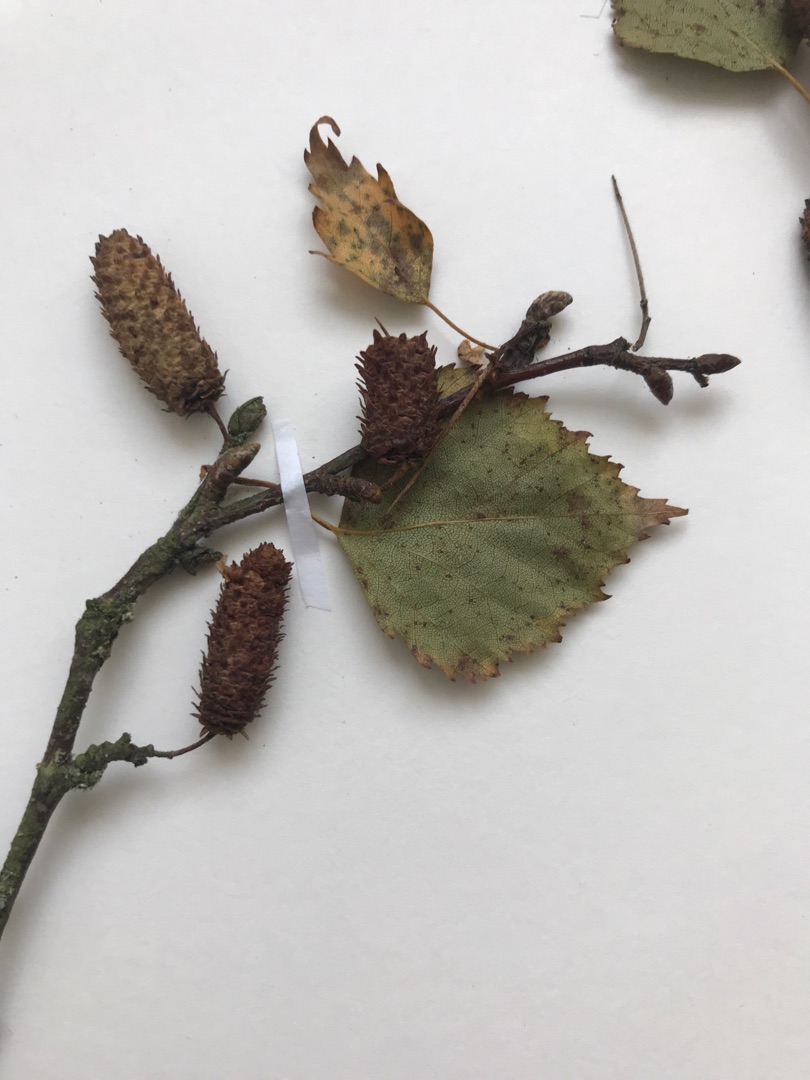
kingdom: Plantae
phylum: Tracheophyta
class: Magnoliopsida
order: Fagales
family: Betulaceae
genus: Betula
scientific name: Betula pendula
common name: Vorte-birk
